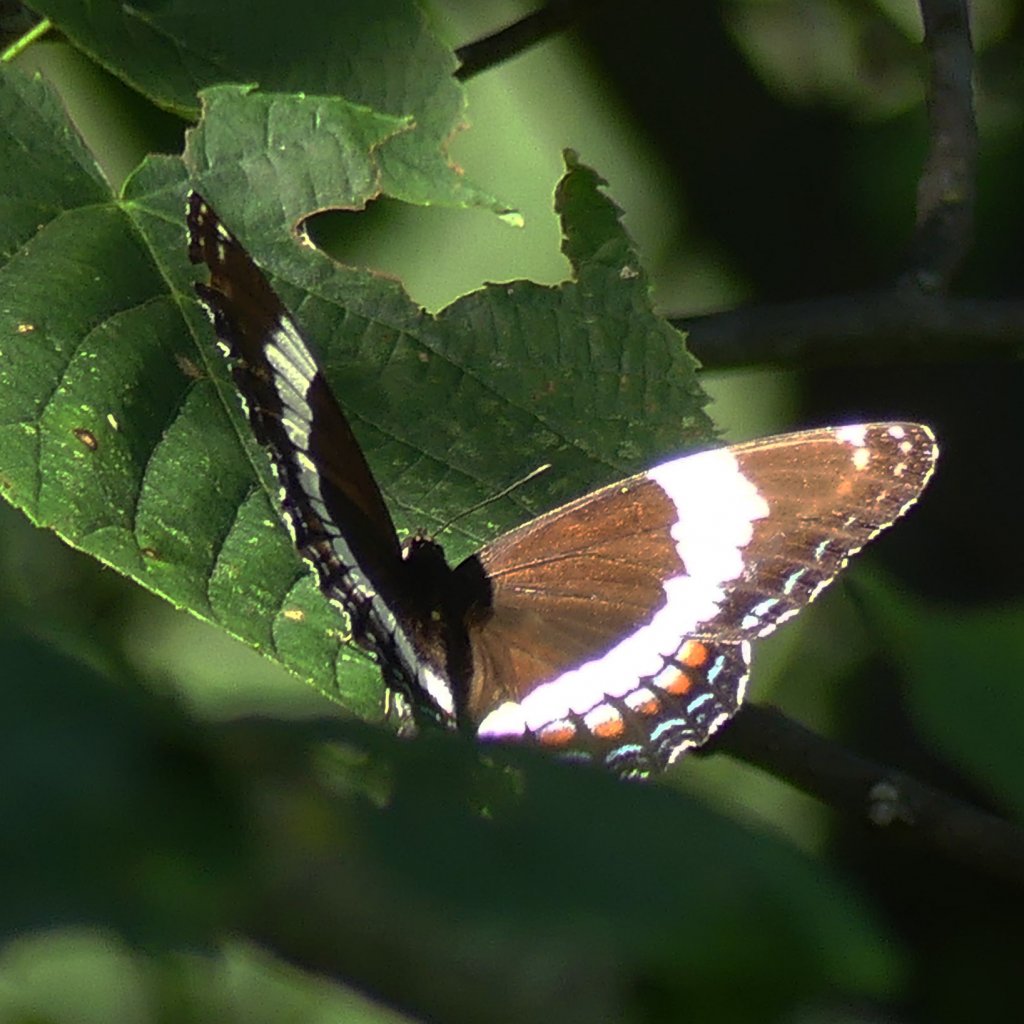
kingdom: Animalia
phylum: Arthropoda
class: Insecta
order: Lepidoptera
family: Nymphalidae
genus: Limenitis
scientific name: Limenitis arthemis
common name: Red-spotted Admiral
